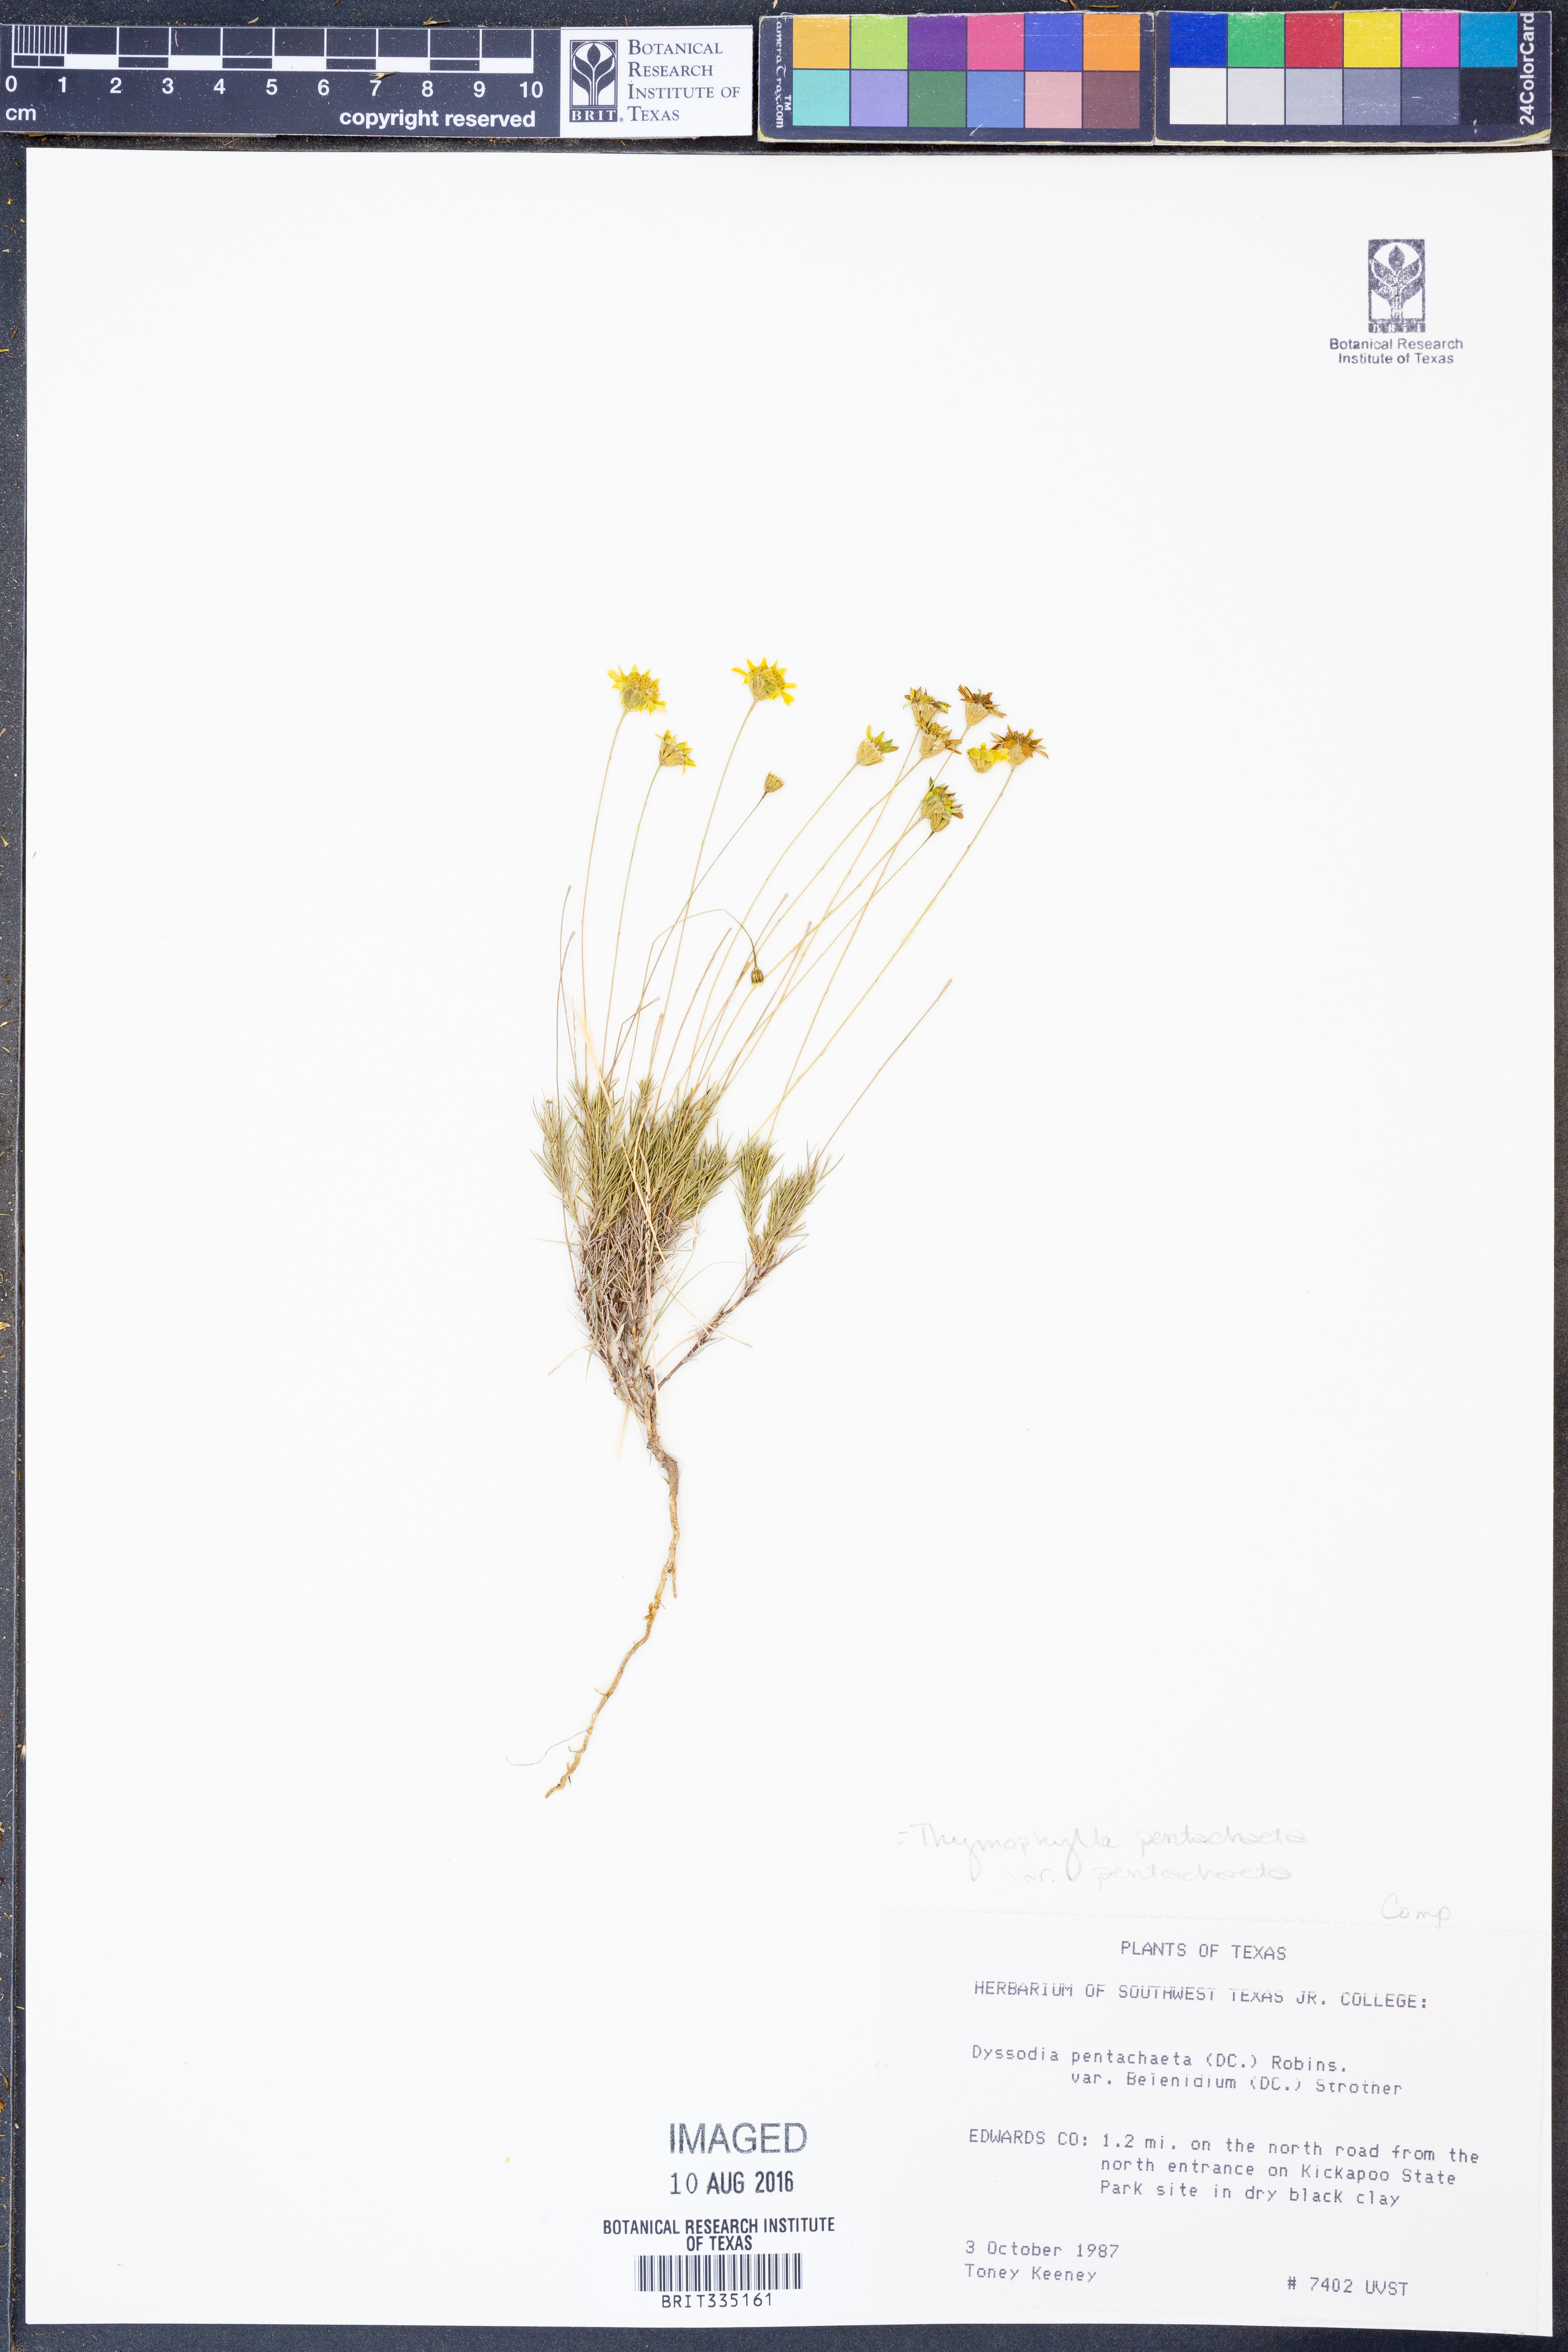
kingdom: Plantae
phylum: Tracheophyta
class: Magnoliopsida
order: Asterales
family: Asteraceae
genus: Thymophylla
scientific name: Thymophylla pentachaeta
